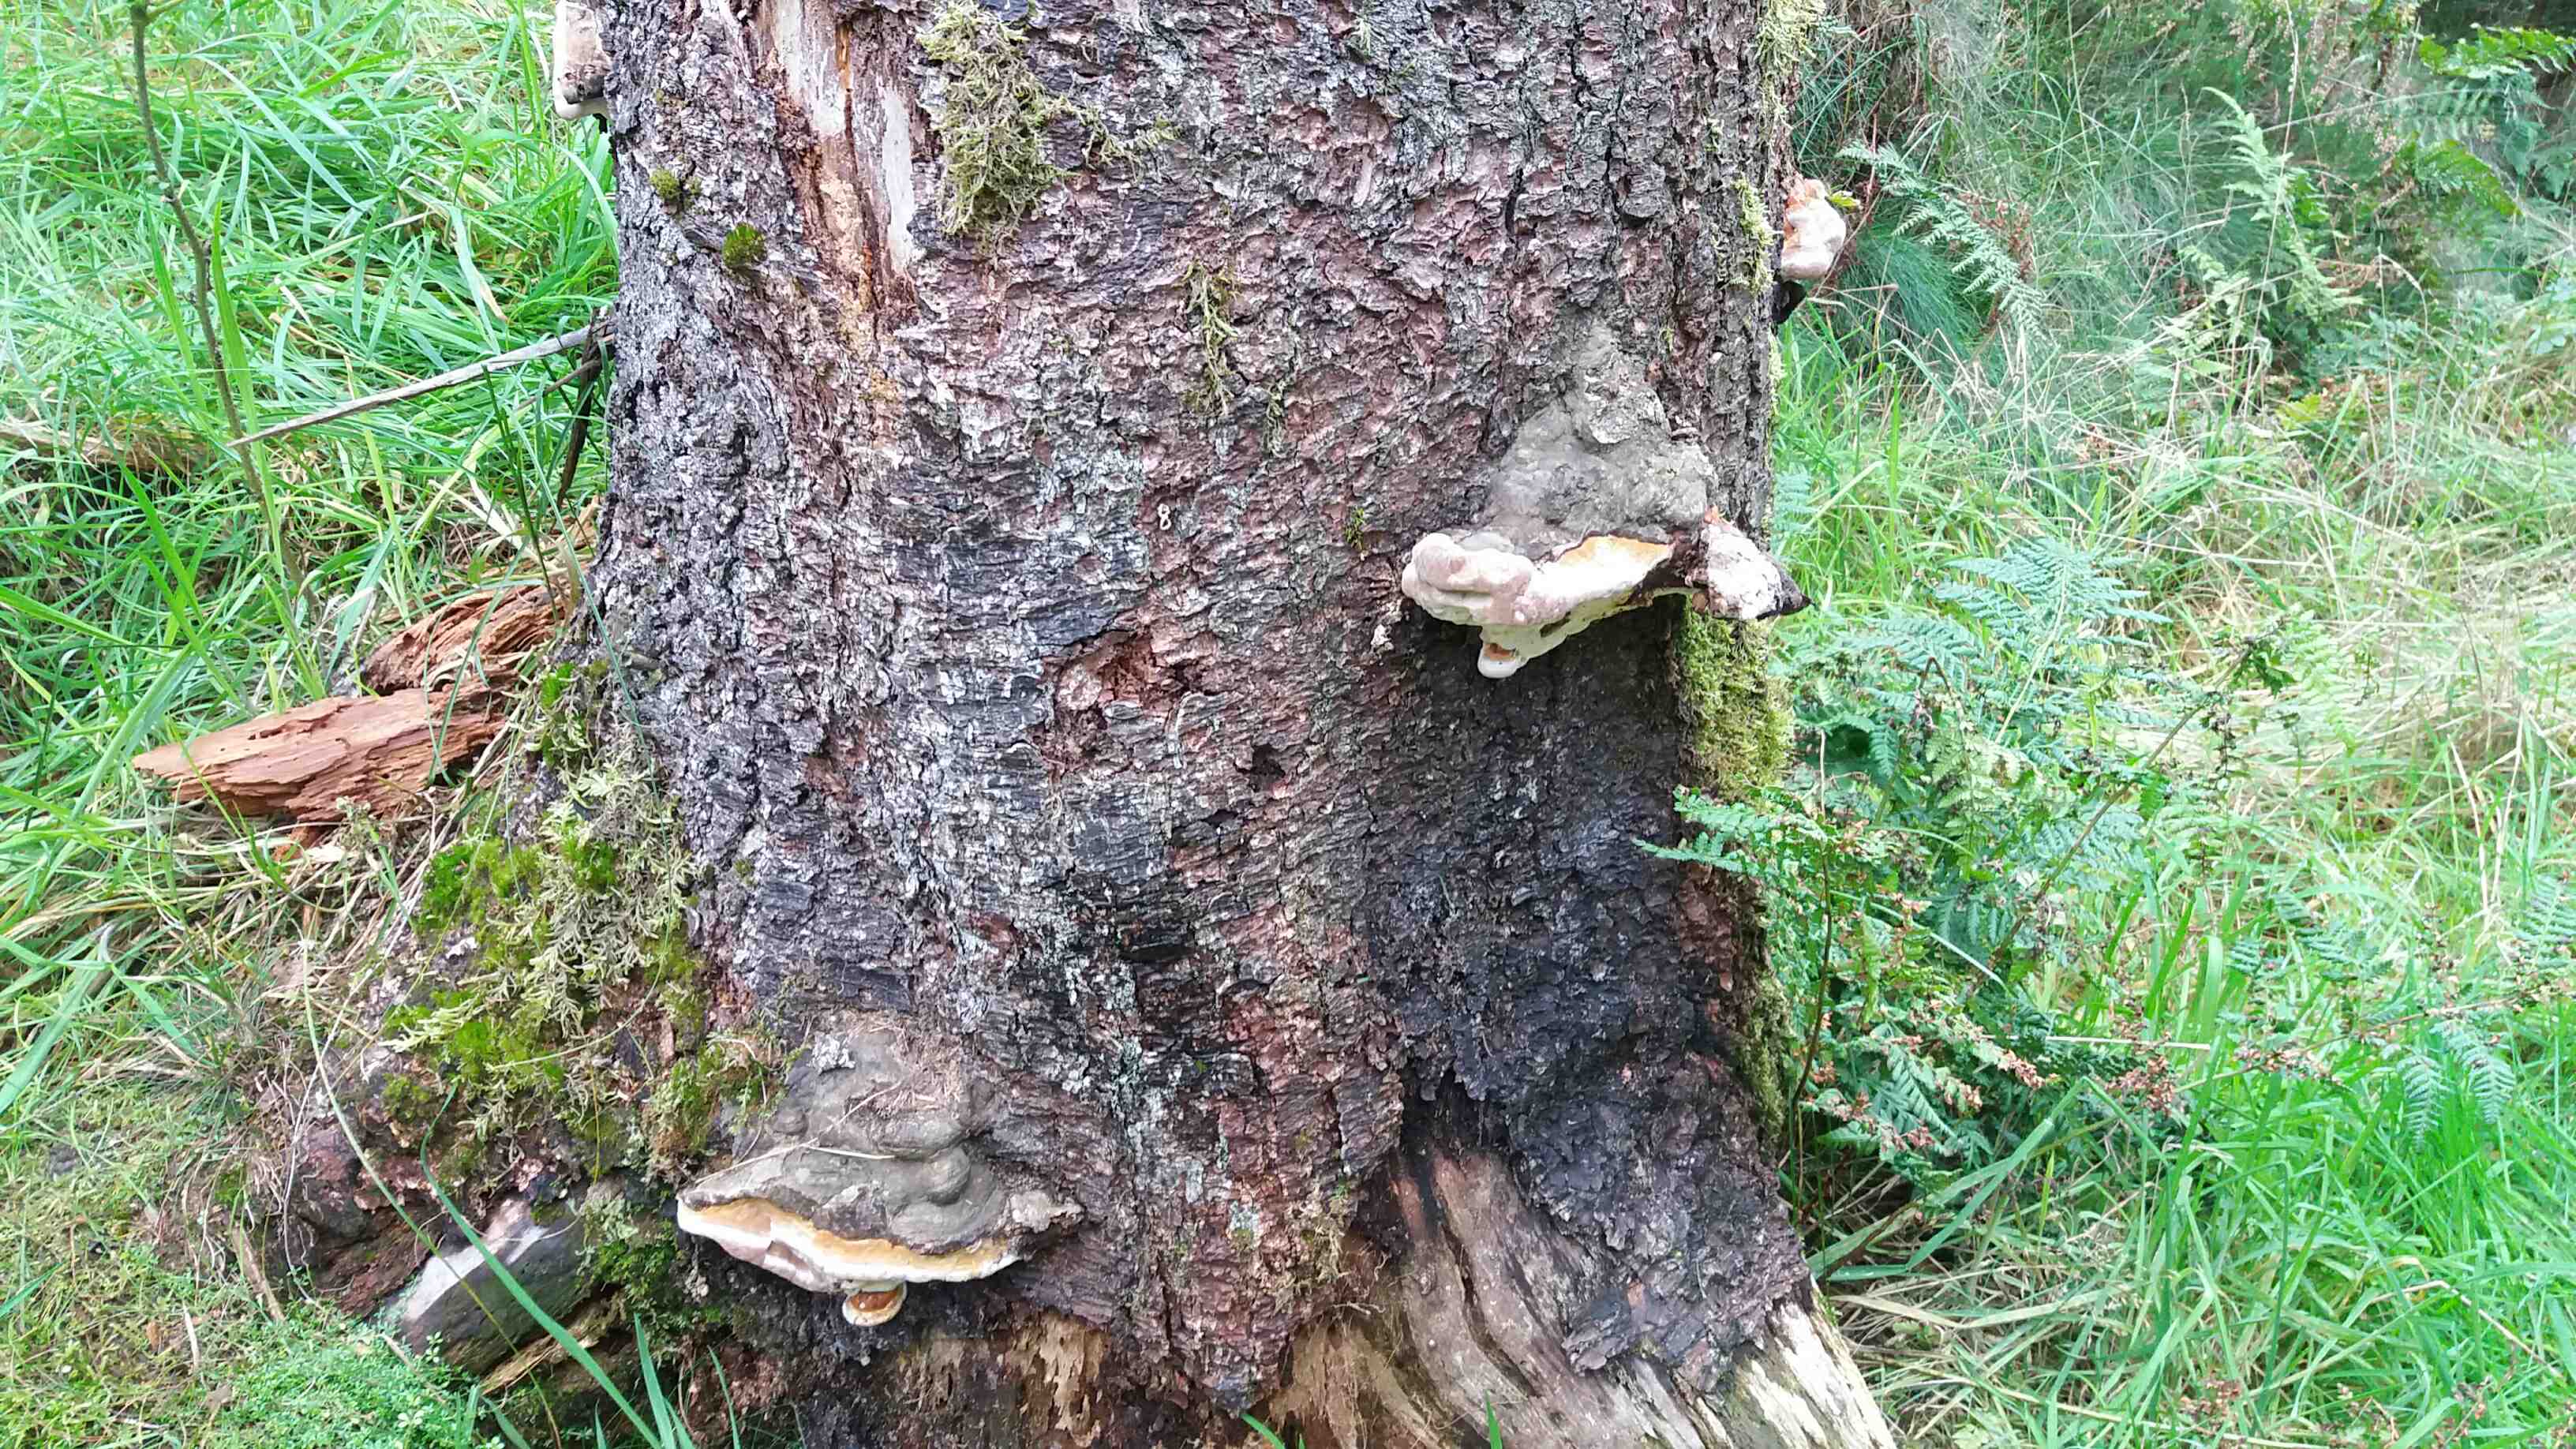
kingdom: Fungi
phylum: Basidiomycota
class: Agaricomycetes
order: Polyporales
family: Fomitopsidaceae
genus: Fomitopsis
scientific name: Fomitopsis pinicola
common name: randbæltet hovporesvamp
